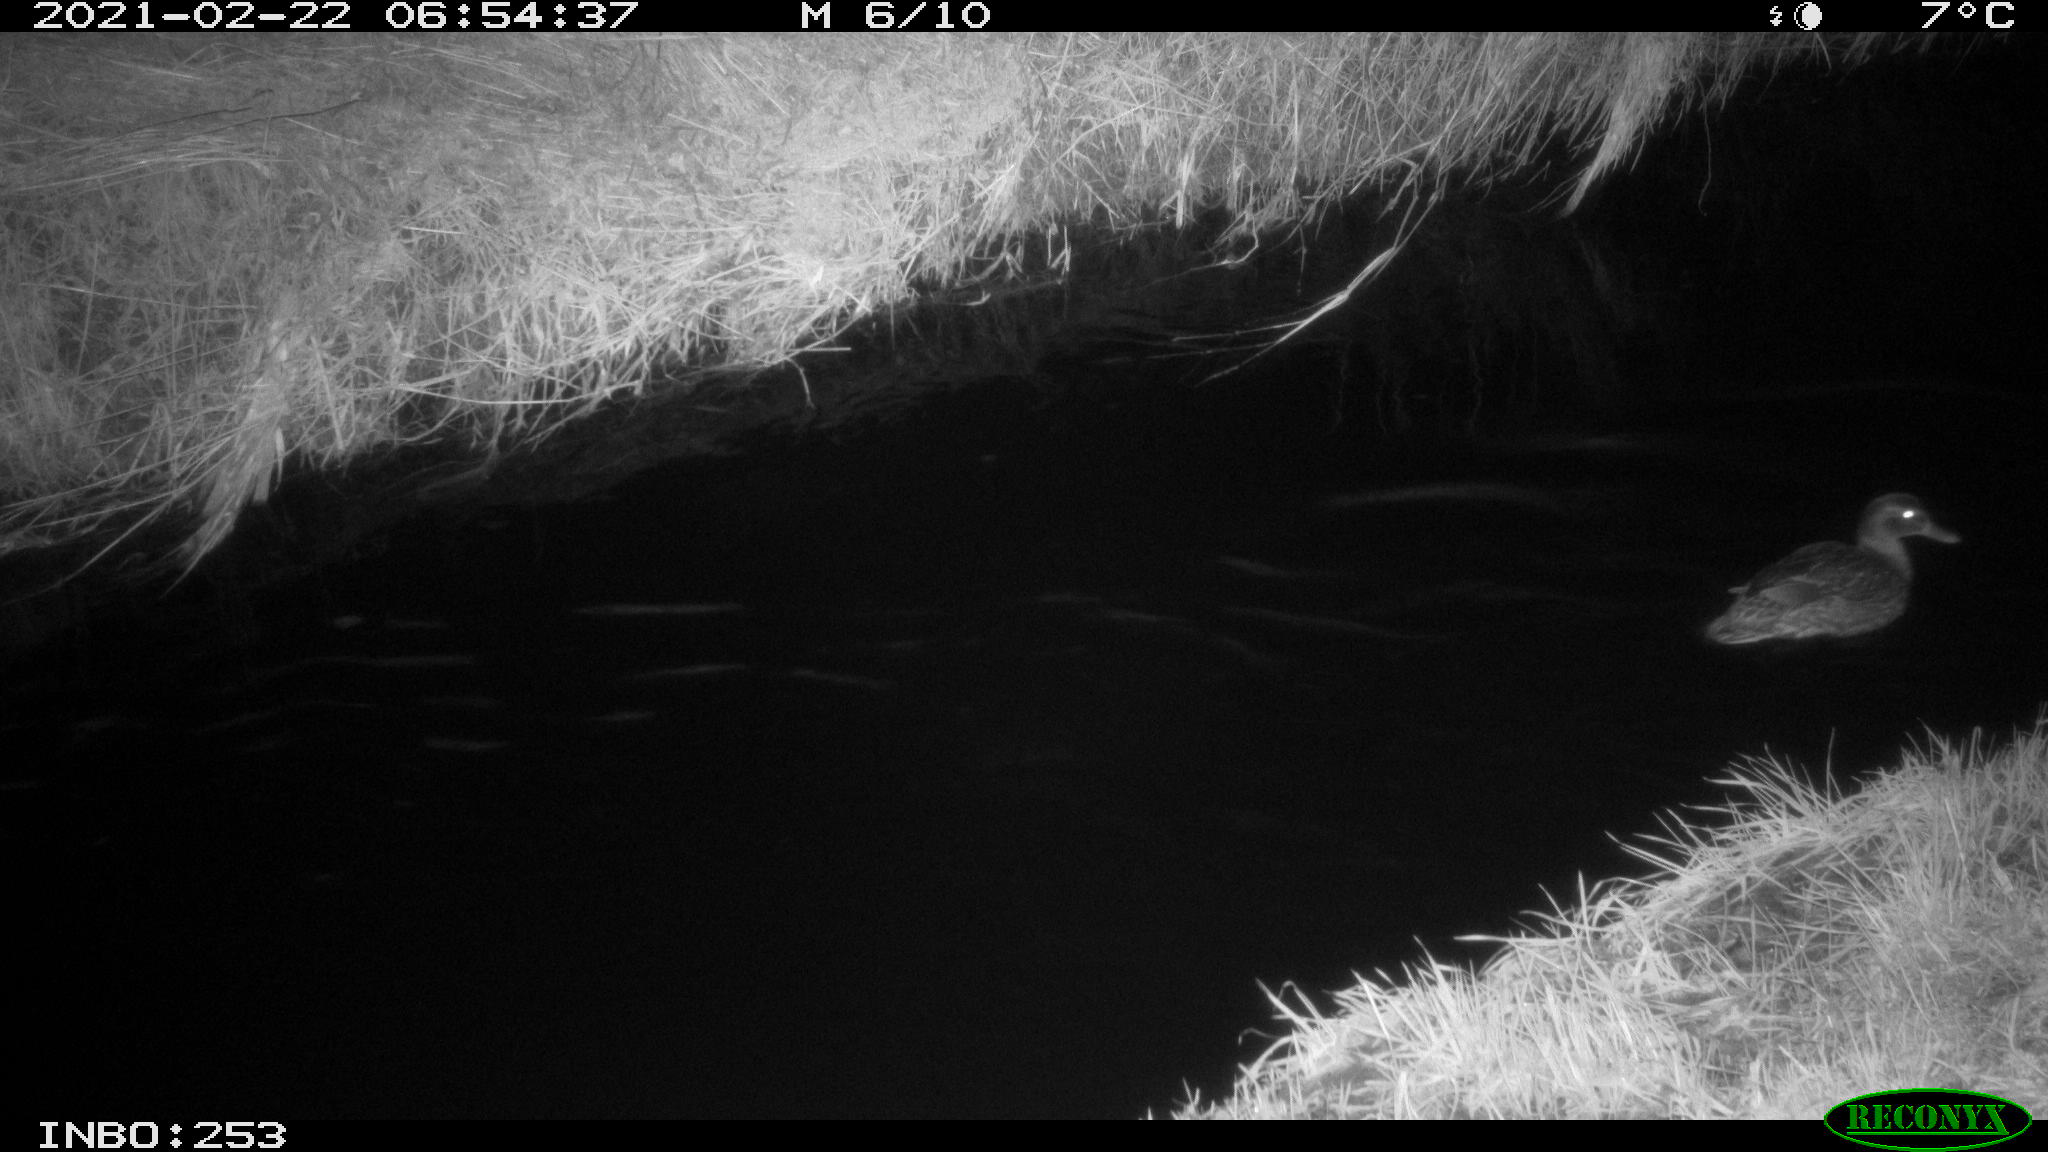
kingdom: Animalia
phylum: Chordata
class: Aves
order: Anseriformes
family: Anatidae
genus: Anas
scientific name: Anas platyrhynchos
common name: Mallard
